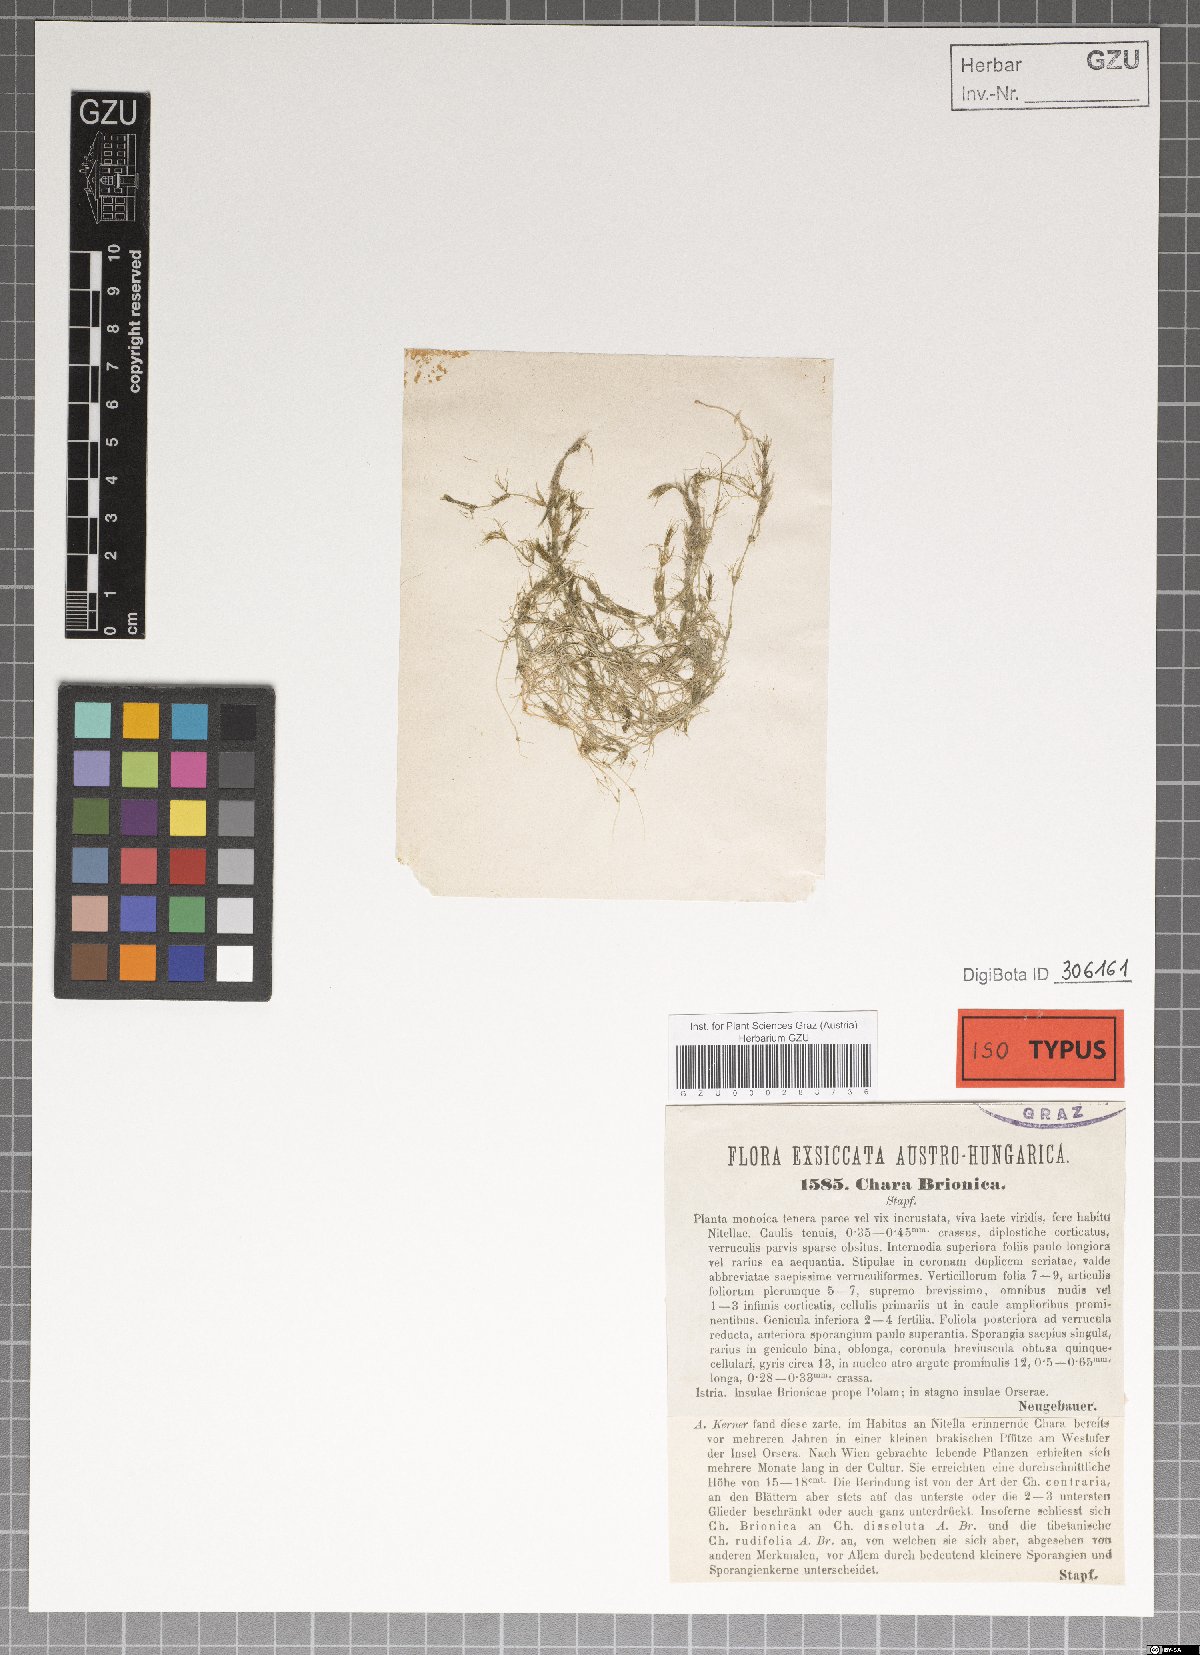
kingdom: Plantae
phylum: Charophyta
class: Charophyceae
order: Charales
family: Characeae
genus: Chara
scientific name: Chara
